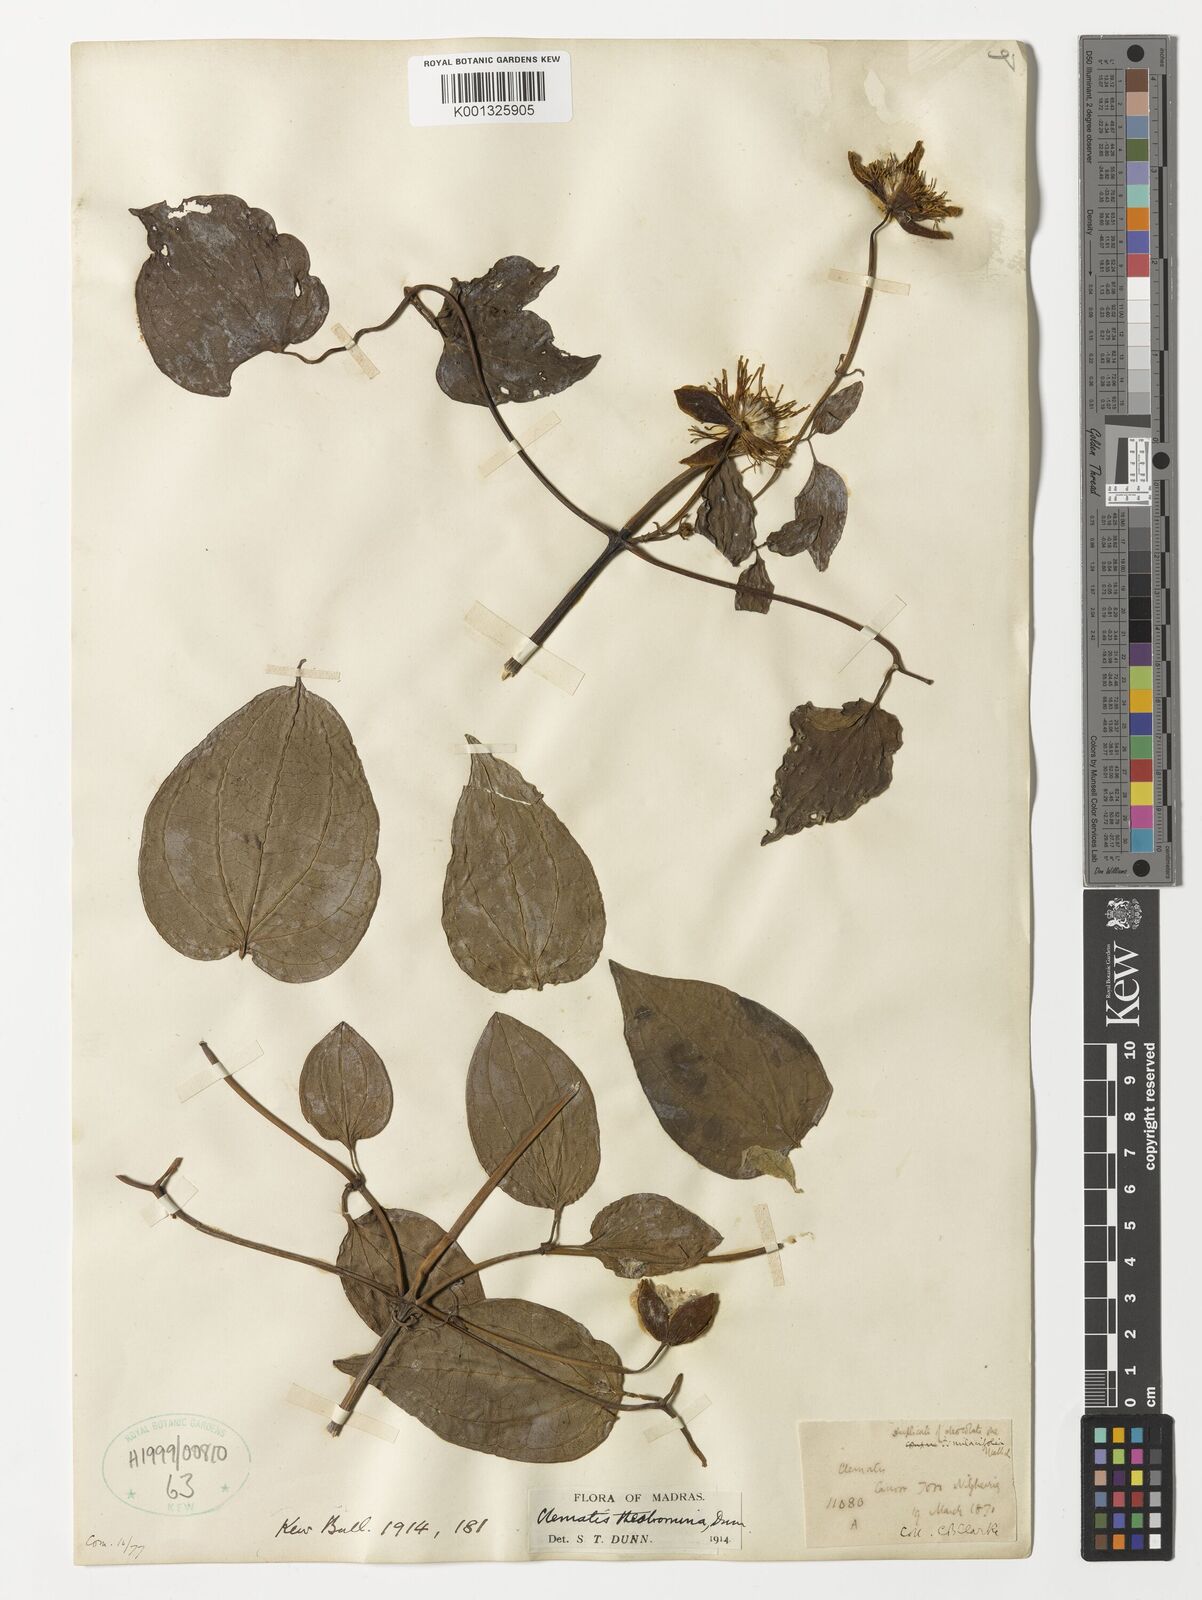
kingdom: Plantae
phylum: Tracheophyta
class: Magnoliopsida
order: Ranunculales
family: Ranunculaceae
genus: Clematis
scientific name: Clematis theobromina
